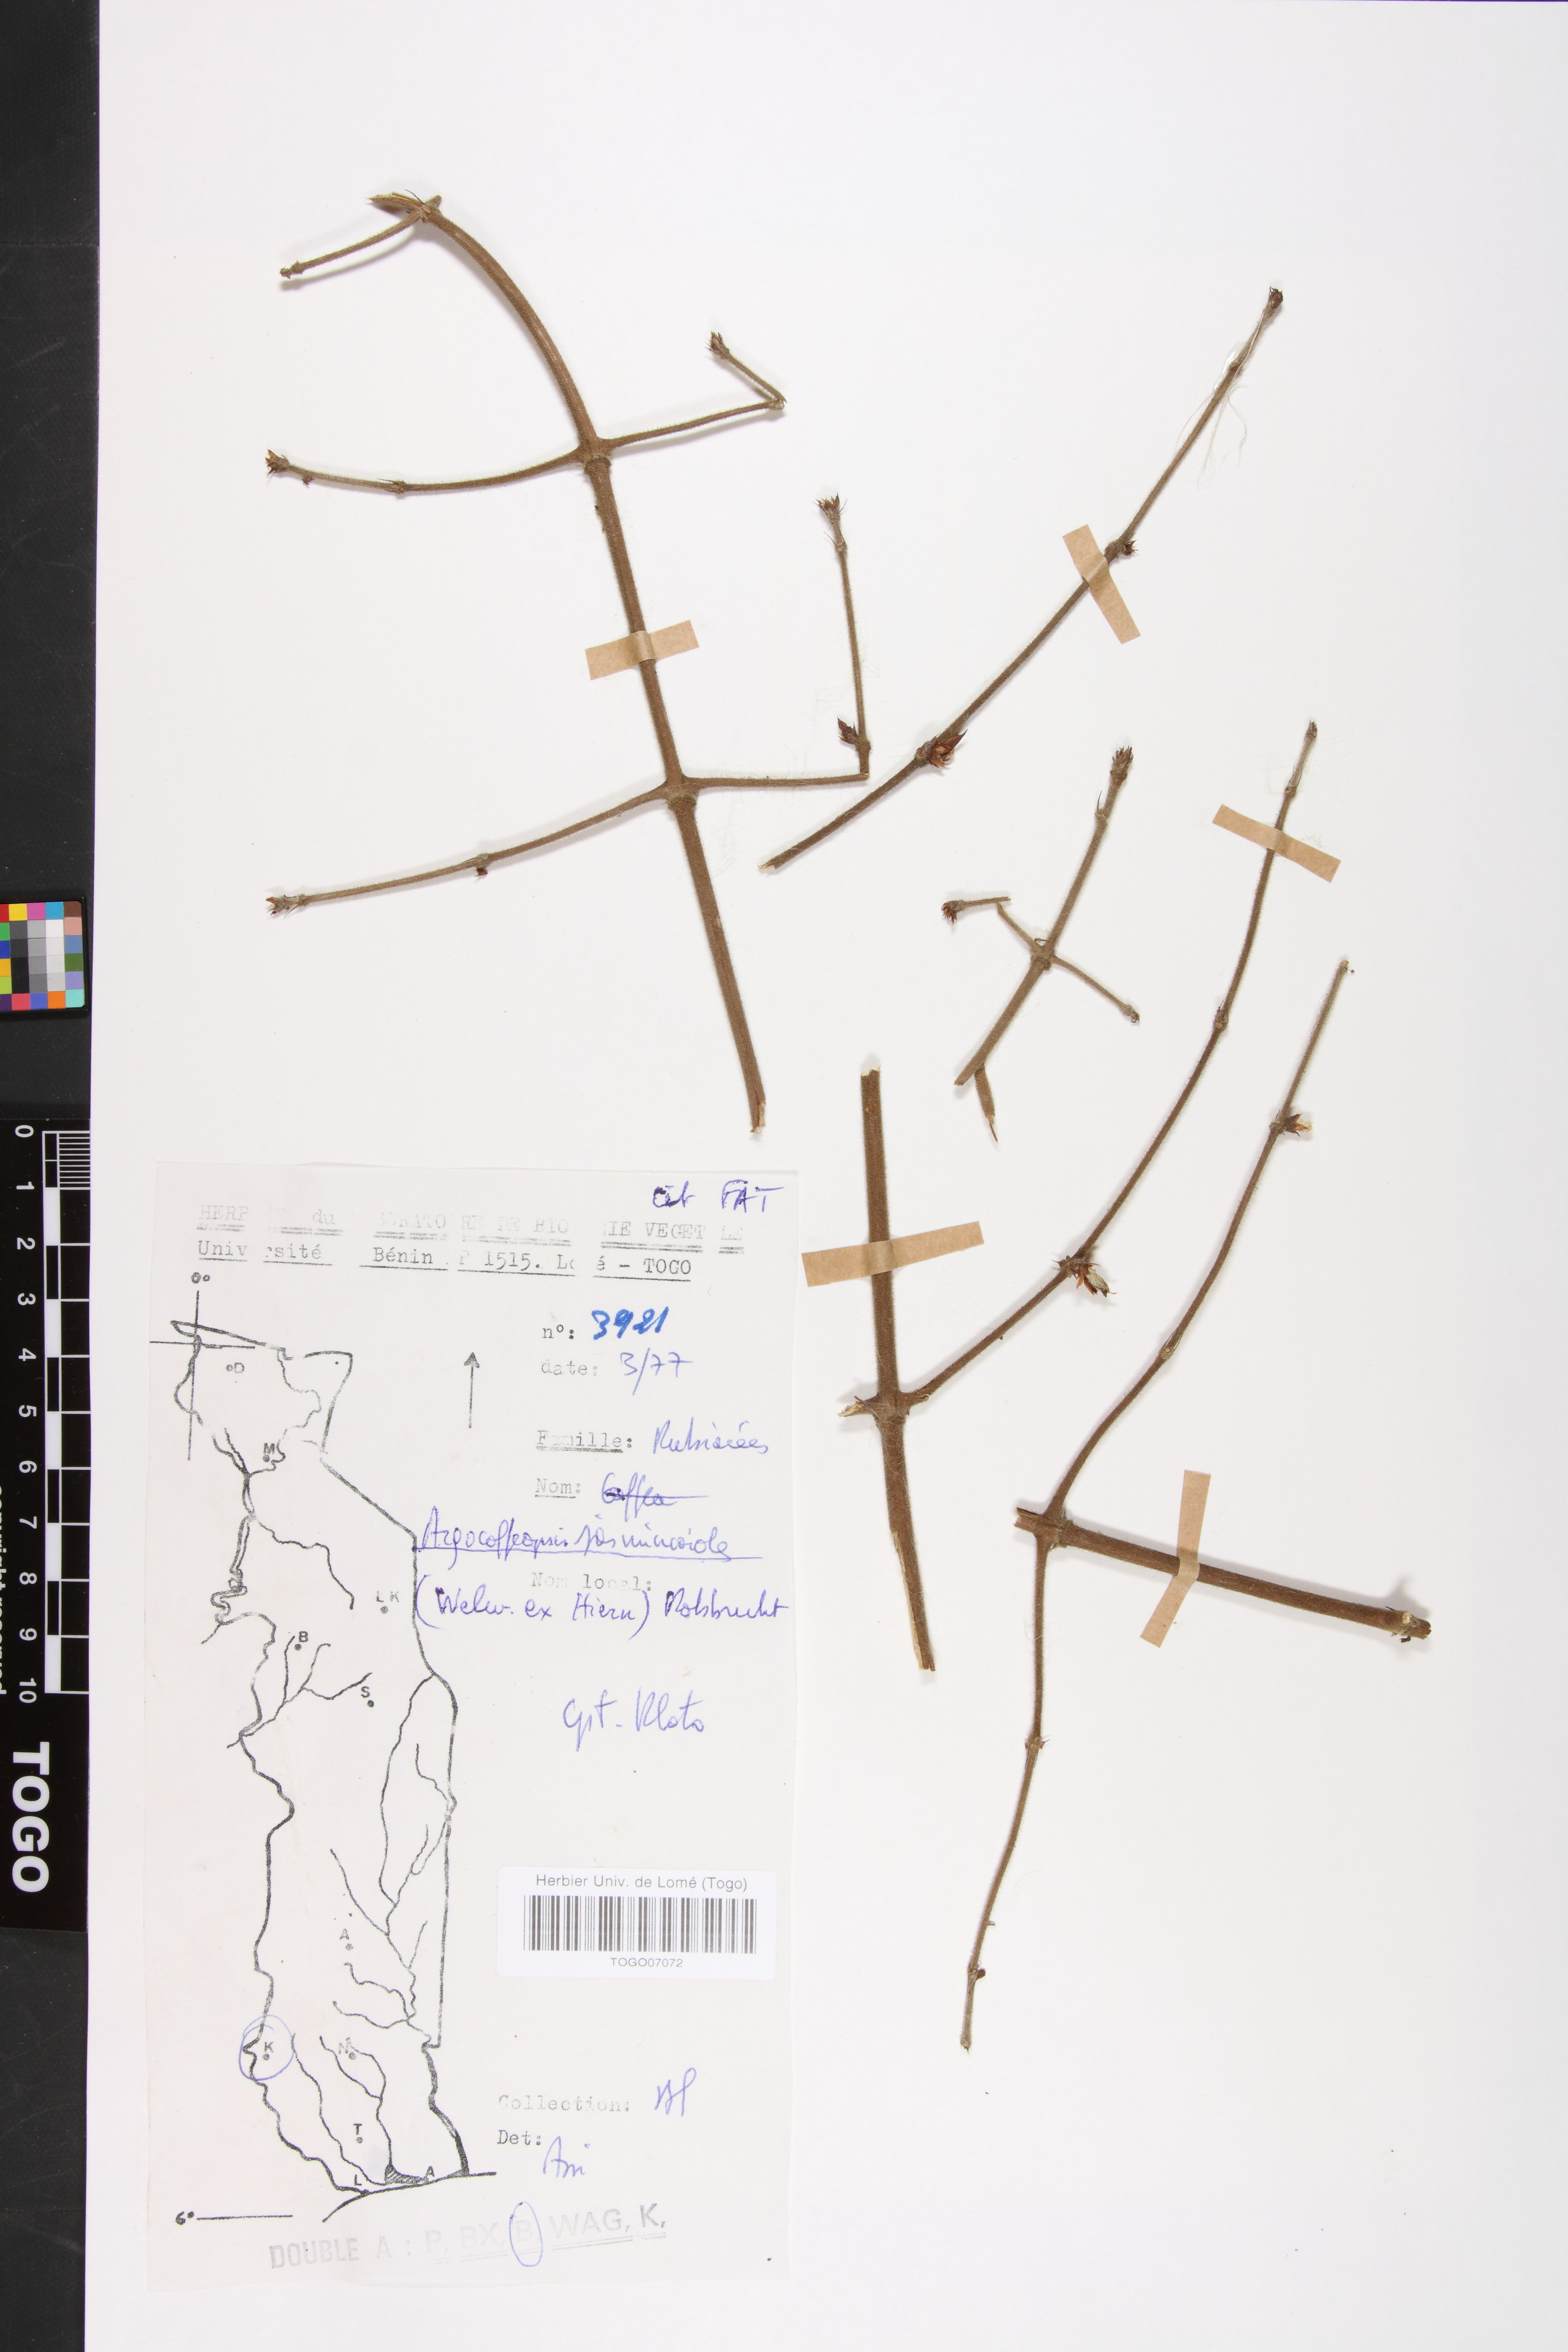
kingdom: Plantae
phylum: Tracheophyta
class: Magnoliopsida
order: Gentianales
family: Rubiaceae
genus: Argocoffeopsis
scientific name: Argocoffeopsis eketensis
